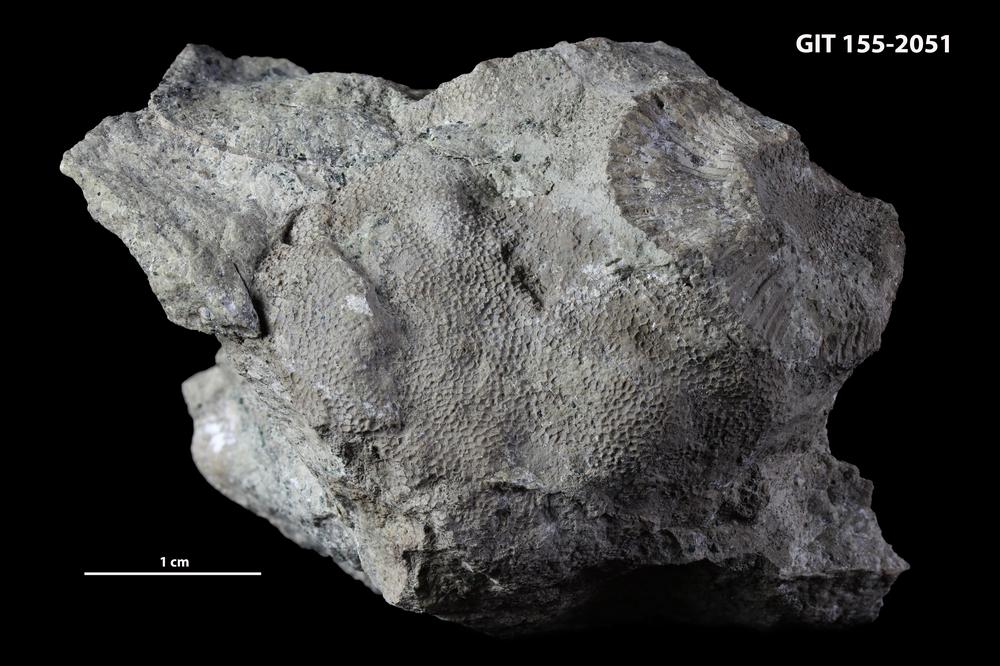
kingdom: Animalia
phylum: Bryozoa
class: Stenolaemata
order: Trepostomatida
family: Orbiporidae
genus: Orbipora
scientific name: Orbipora acanthophora
